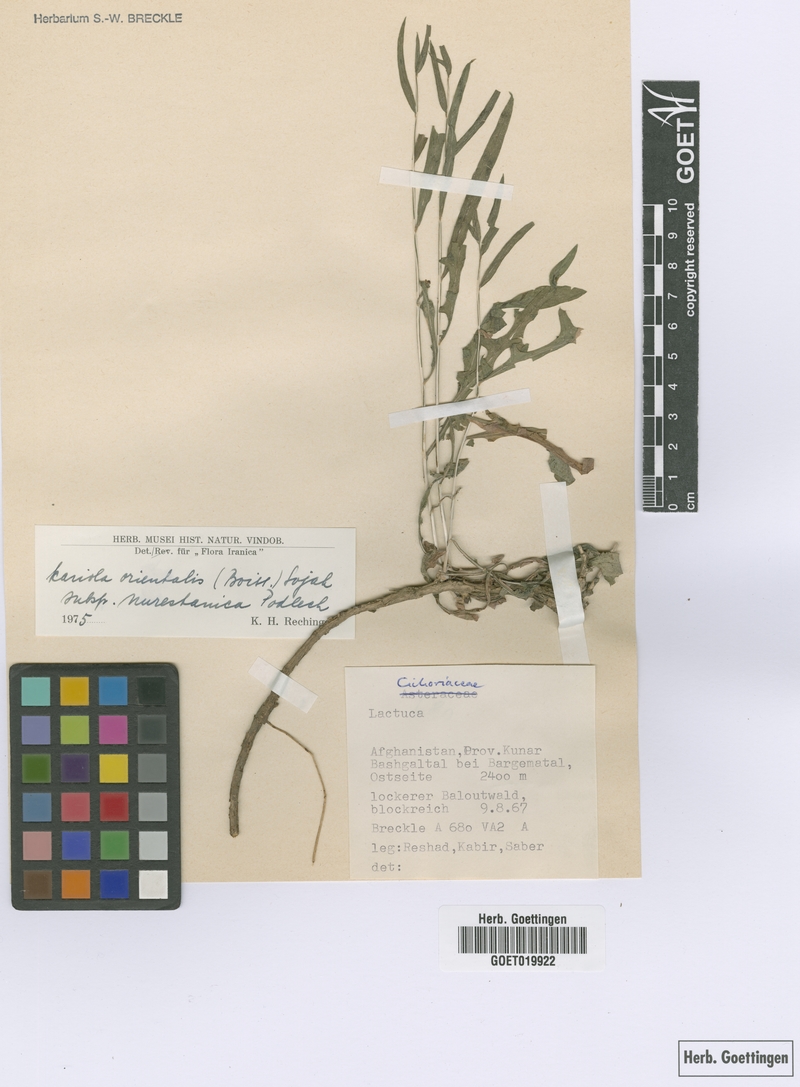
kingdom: Plantae
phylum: Tracheophyta
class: Magnoliopsida
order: Asterales
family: Asteraceae
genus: Lactuca
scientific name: Lactuca orientalis
